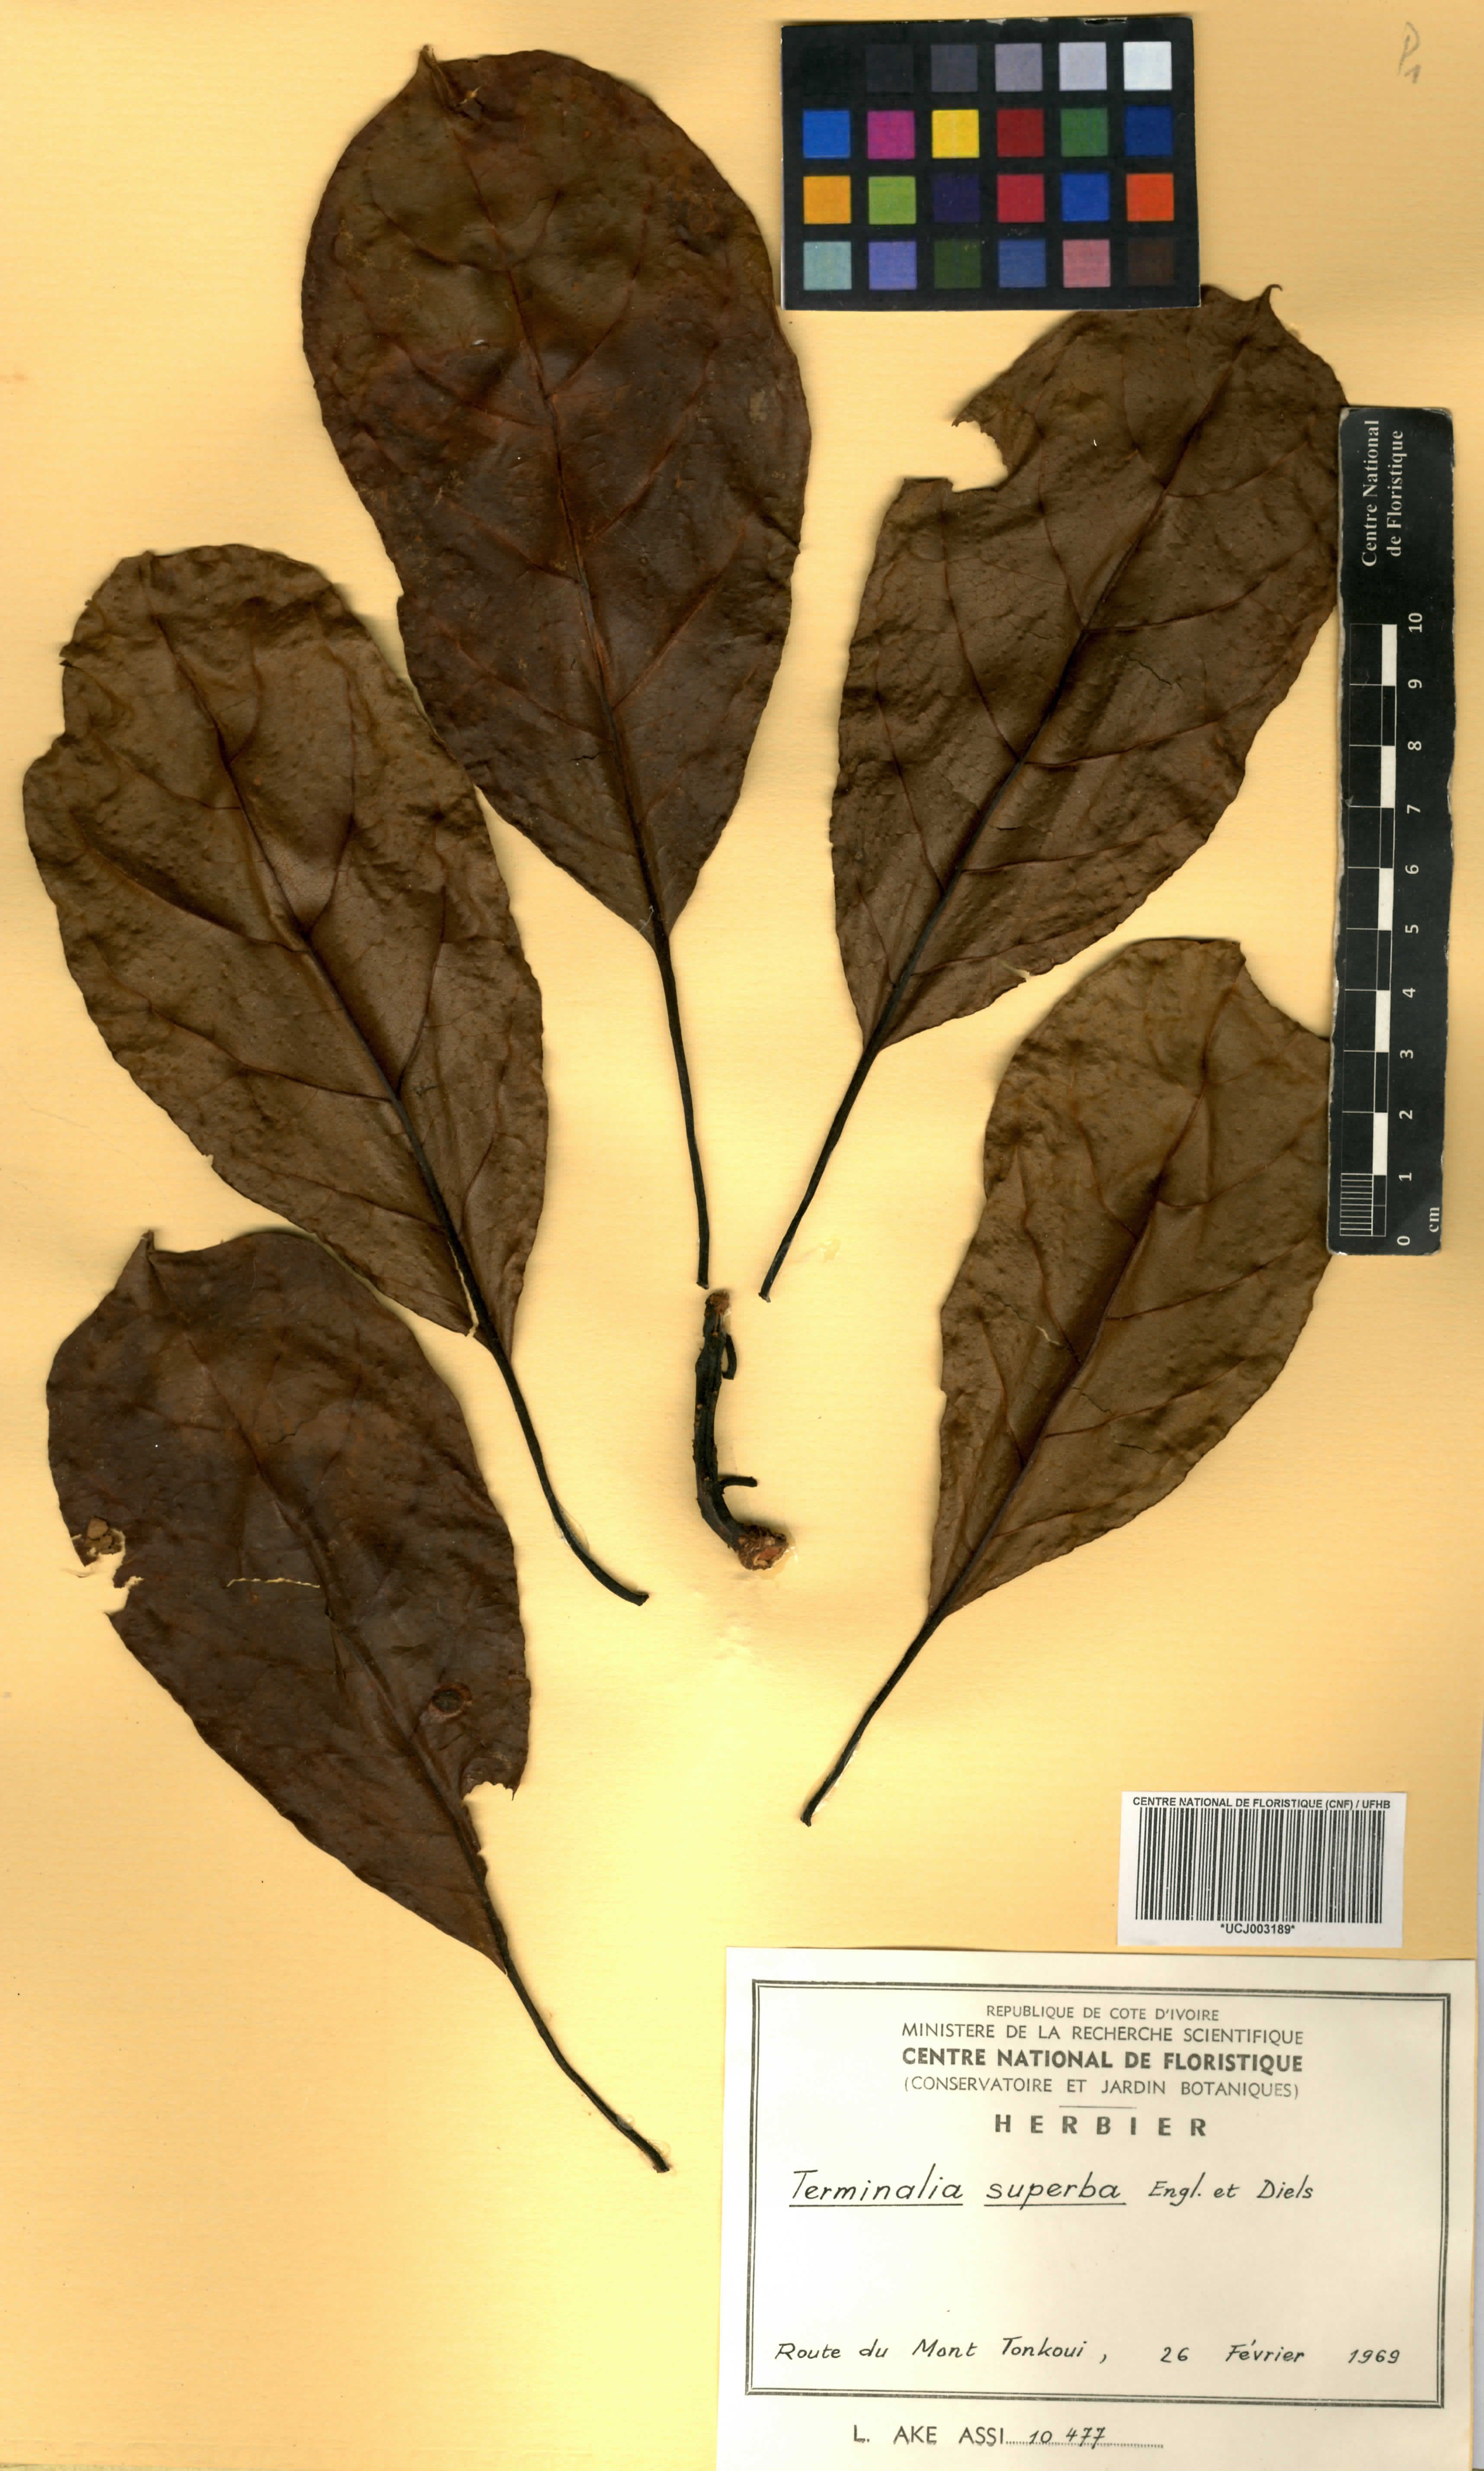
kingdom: Plantae
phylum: Tracheophyta
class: Magnoliopsida
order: Myrtales
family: Combretaceae
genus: Terminalia
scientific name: Terminalia superba
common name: White afara
